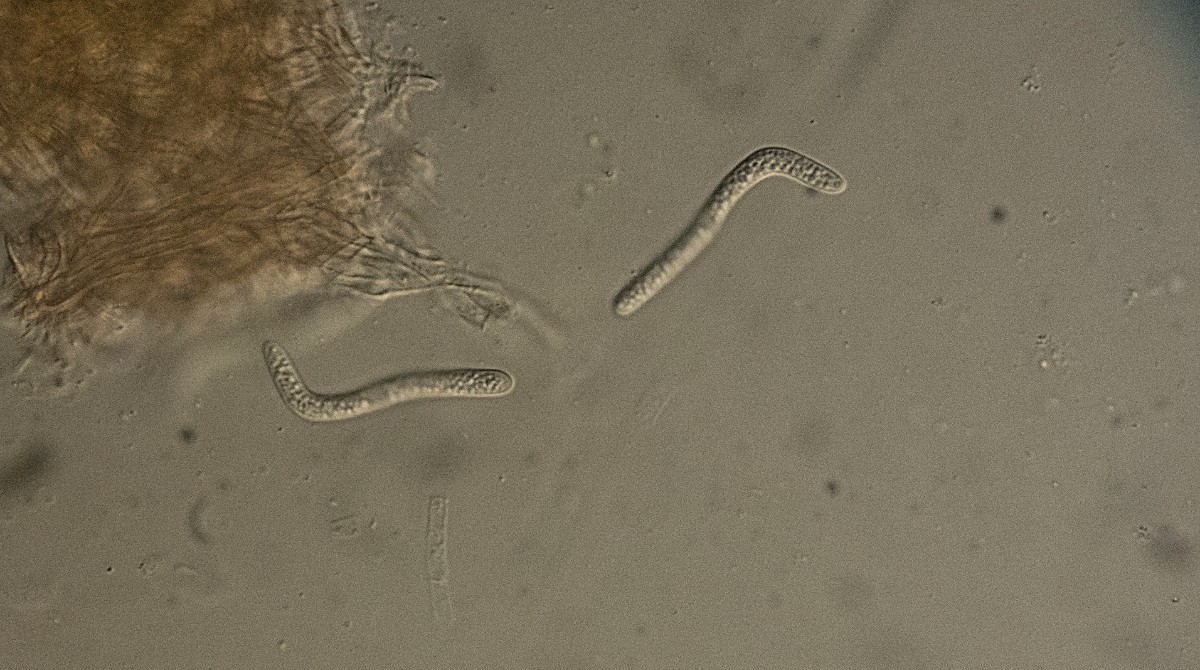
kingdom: Fungi
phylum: Ascomycota
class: Sordariomycetes
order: Sordariales
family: Lasiosphaeriaceae
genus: Lasiosphaeria
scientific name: Lasiosphaeria glabrata
